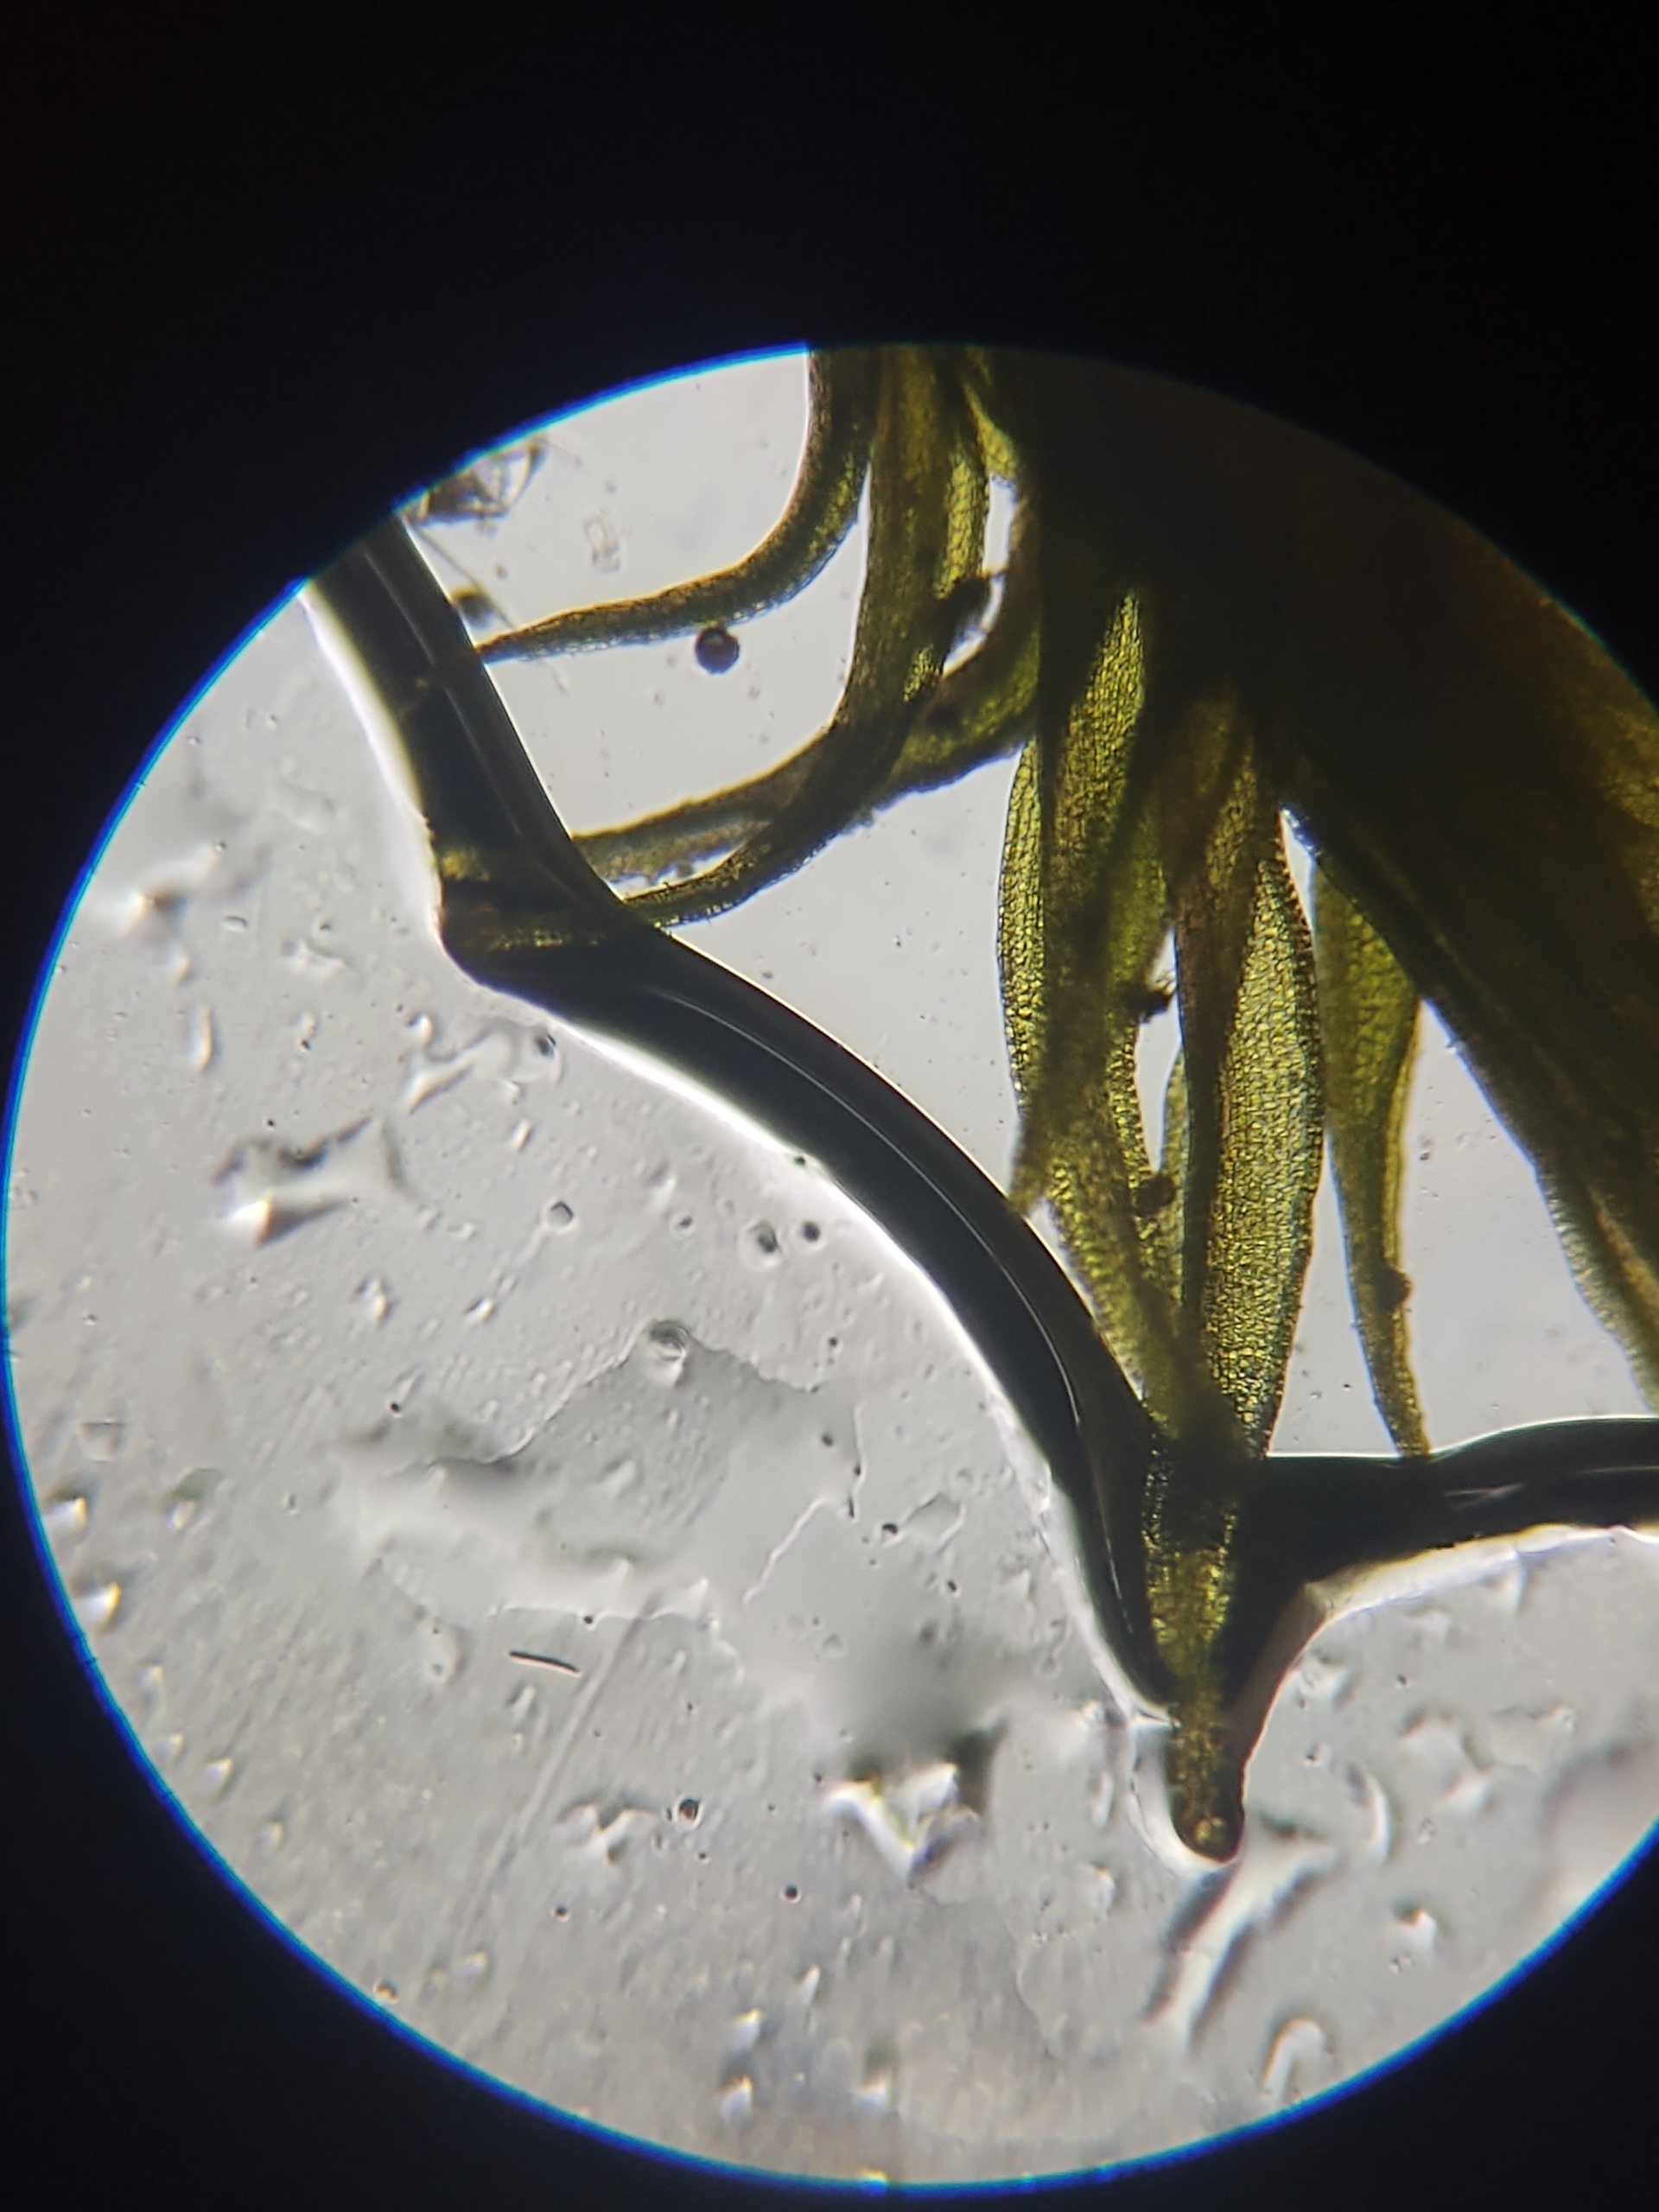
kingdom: Plantae
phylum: Bryophyta
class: Bryopsida
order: Dicranales
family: Ditrichaceae
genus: Ceratodon
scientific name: Ceratodon purpureus
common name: Rød horntand
